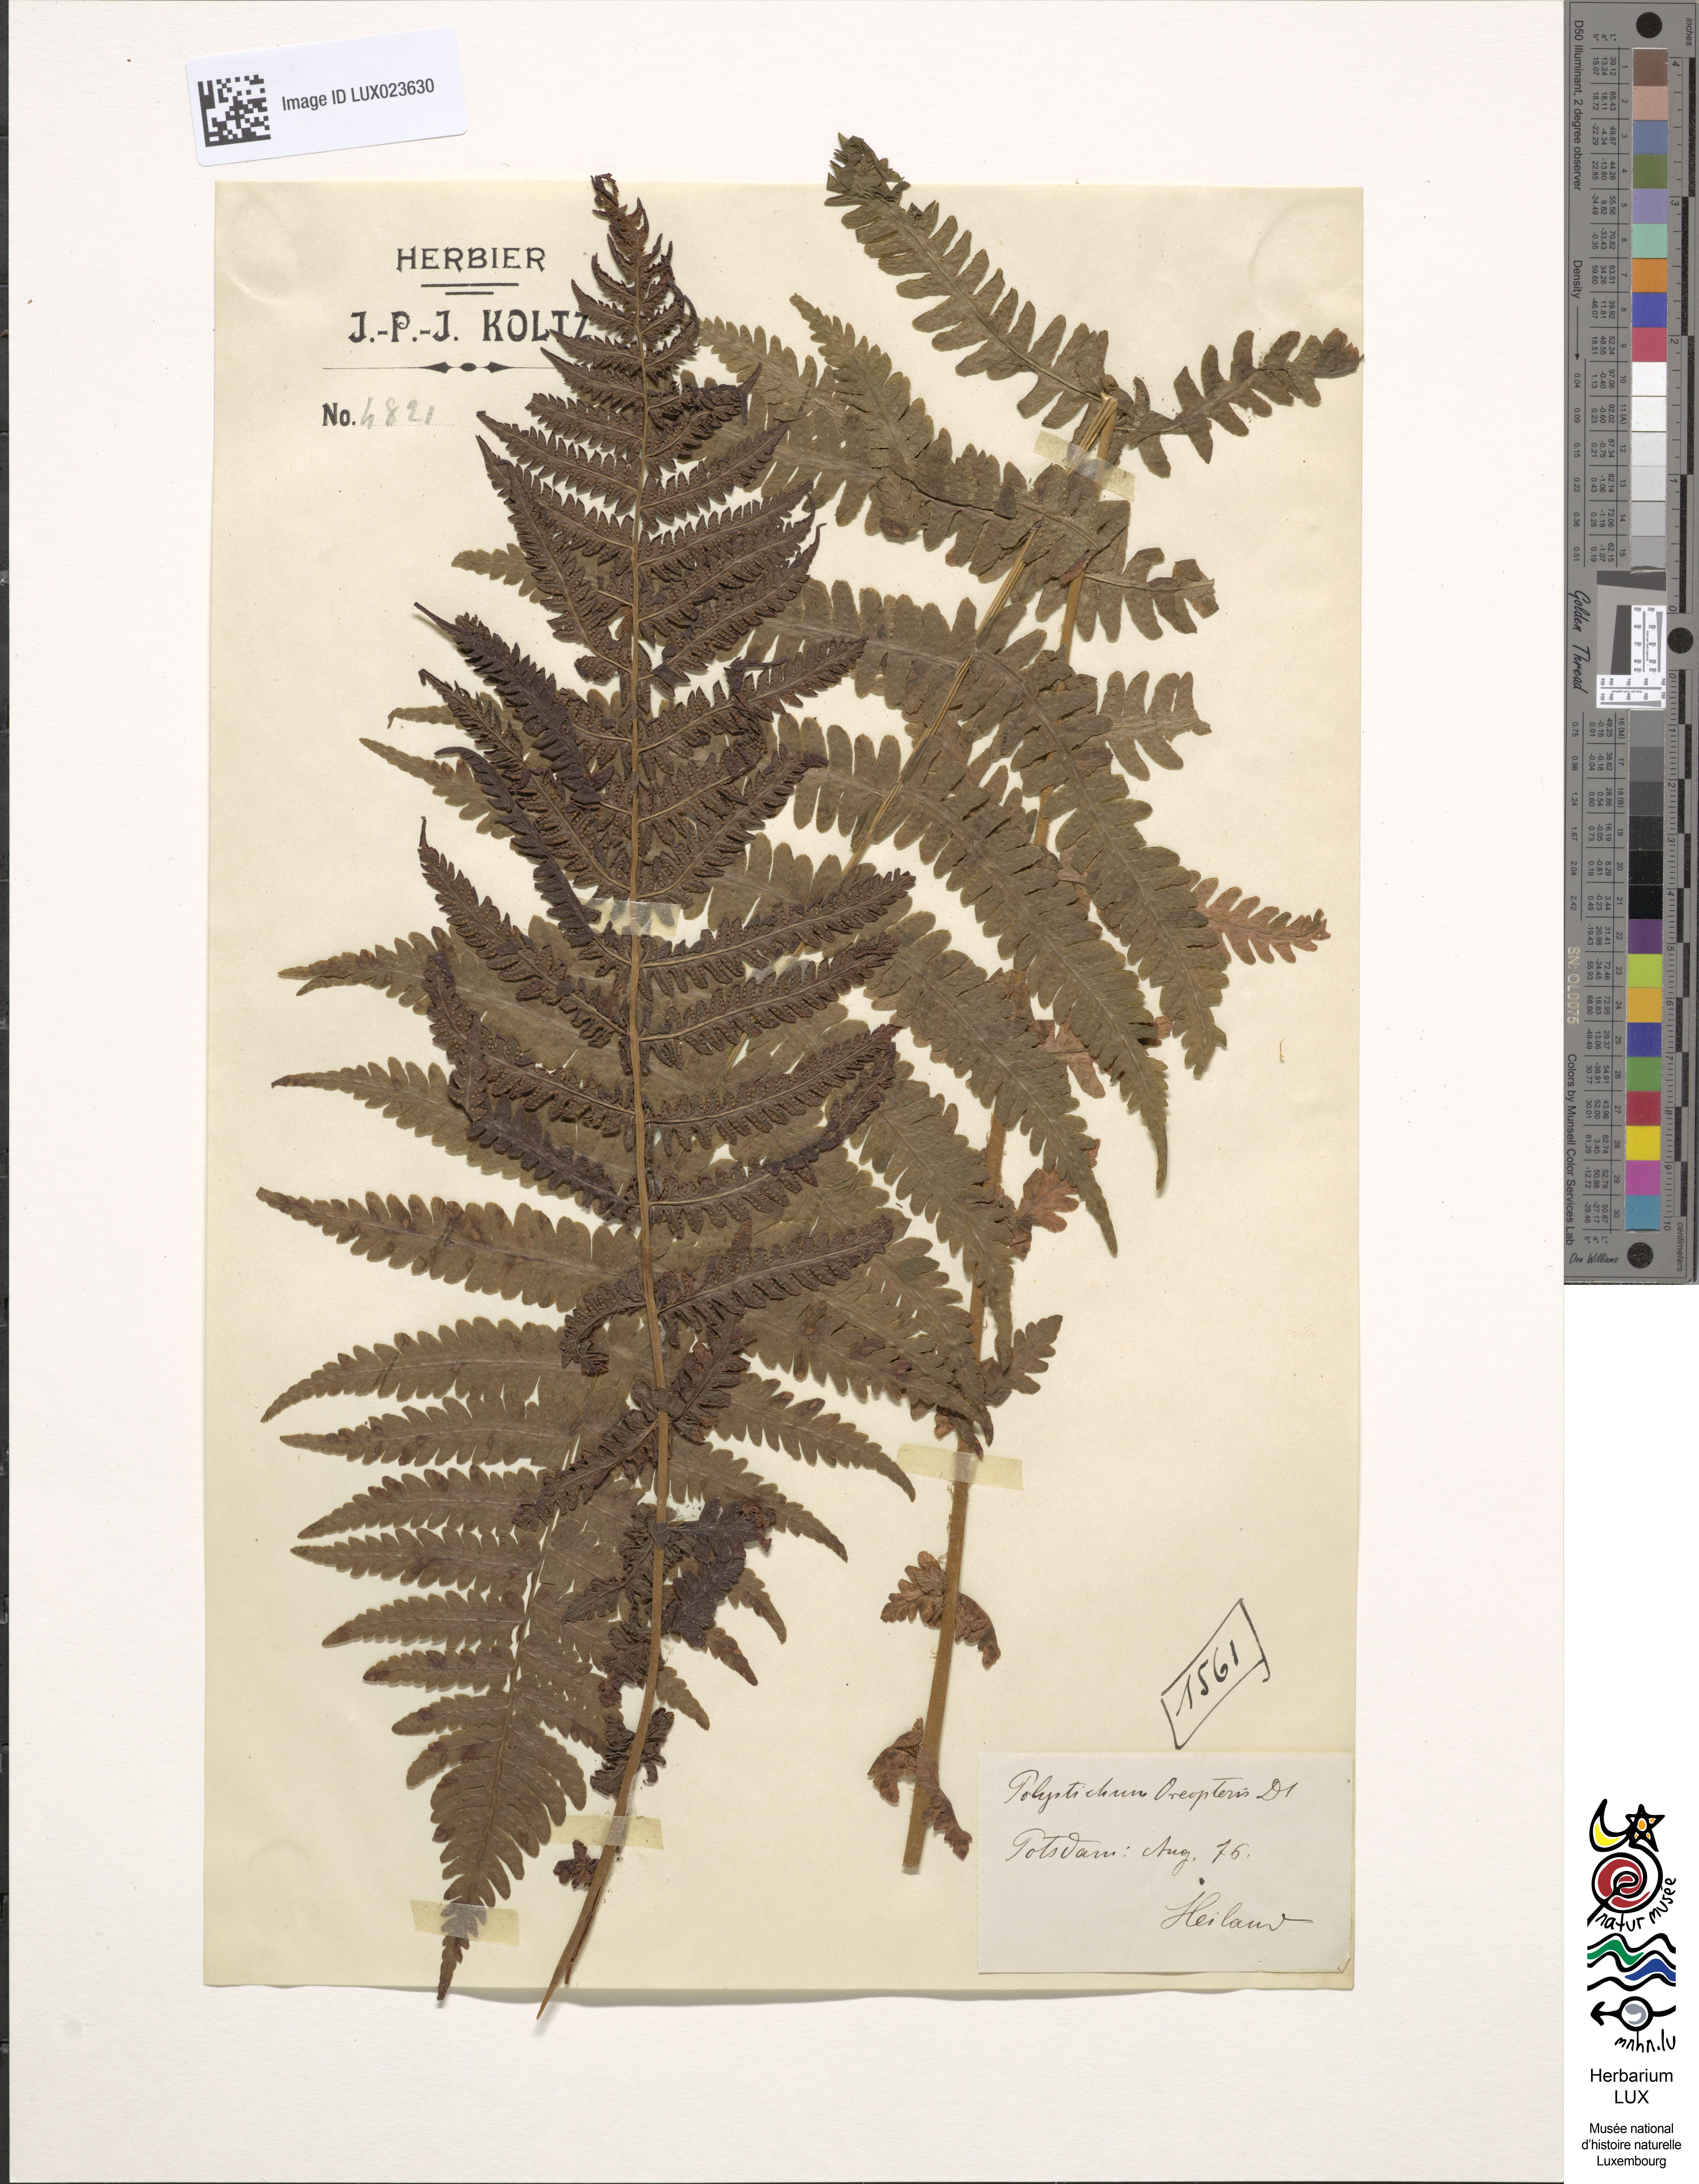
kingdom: Plantae
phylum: Tracheophyta
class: Polypodiopsida
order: Polypodiales
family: Thelypteridaceae
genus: Oreopteris
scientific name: Oreopteris limbosperma
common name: Lemon-scented fern
